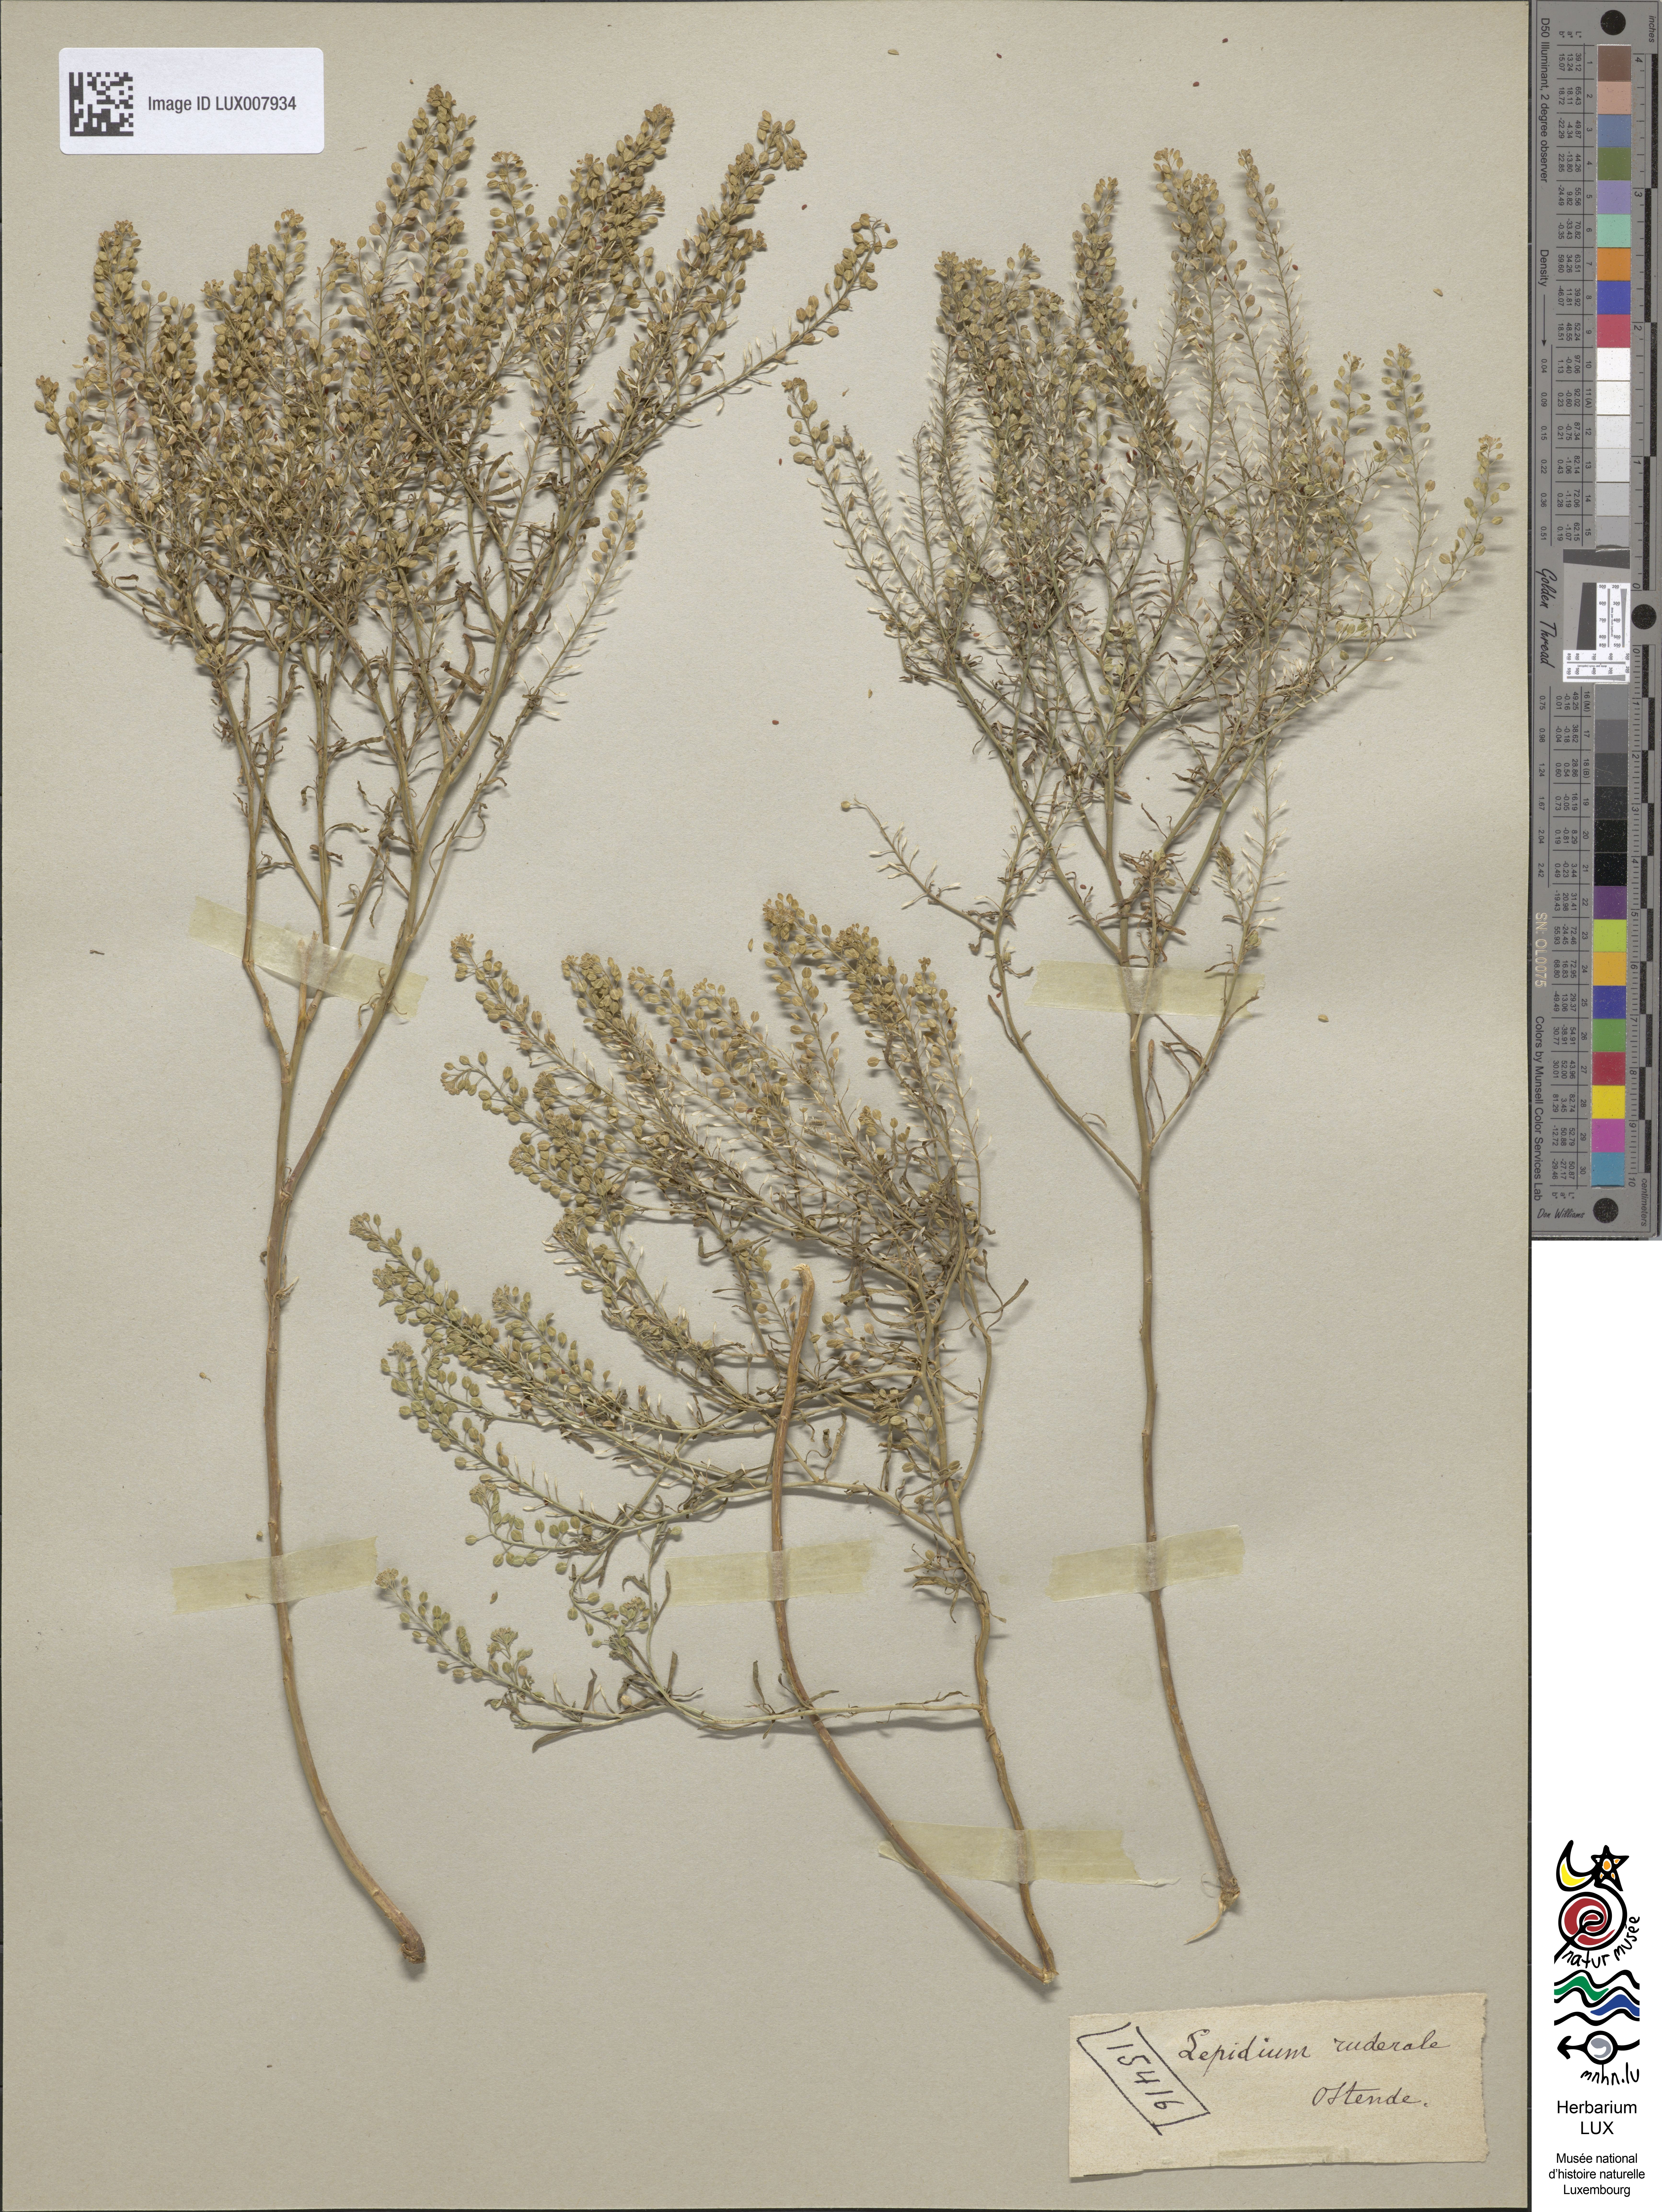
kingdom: Plantae
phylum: Tracheophyta
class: Magnoliopsida
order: Brassicales
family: Brassicaceae
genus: Lepidium
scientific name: Lepidium ruderale
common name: Narrow-leaved pepperwort
